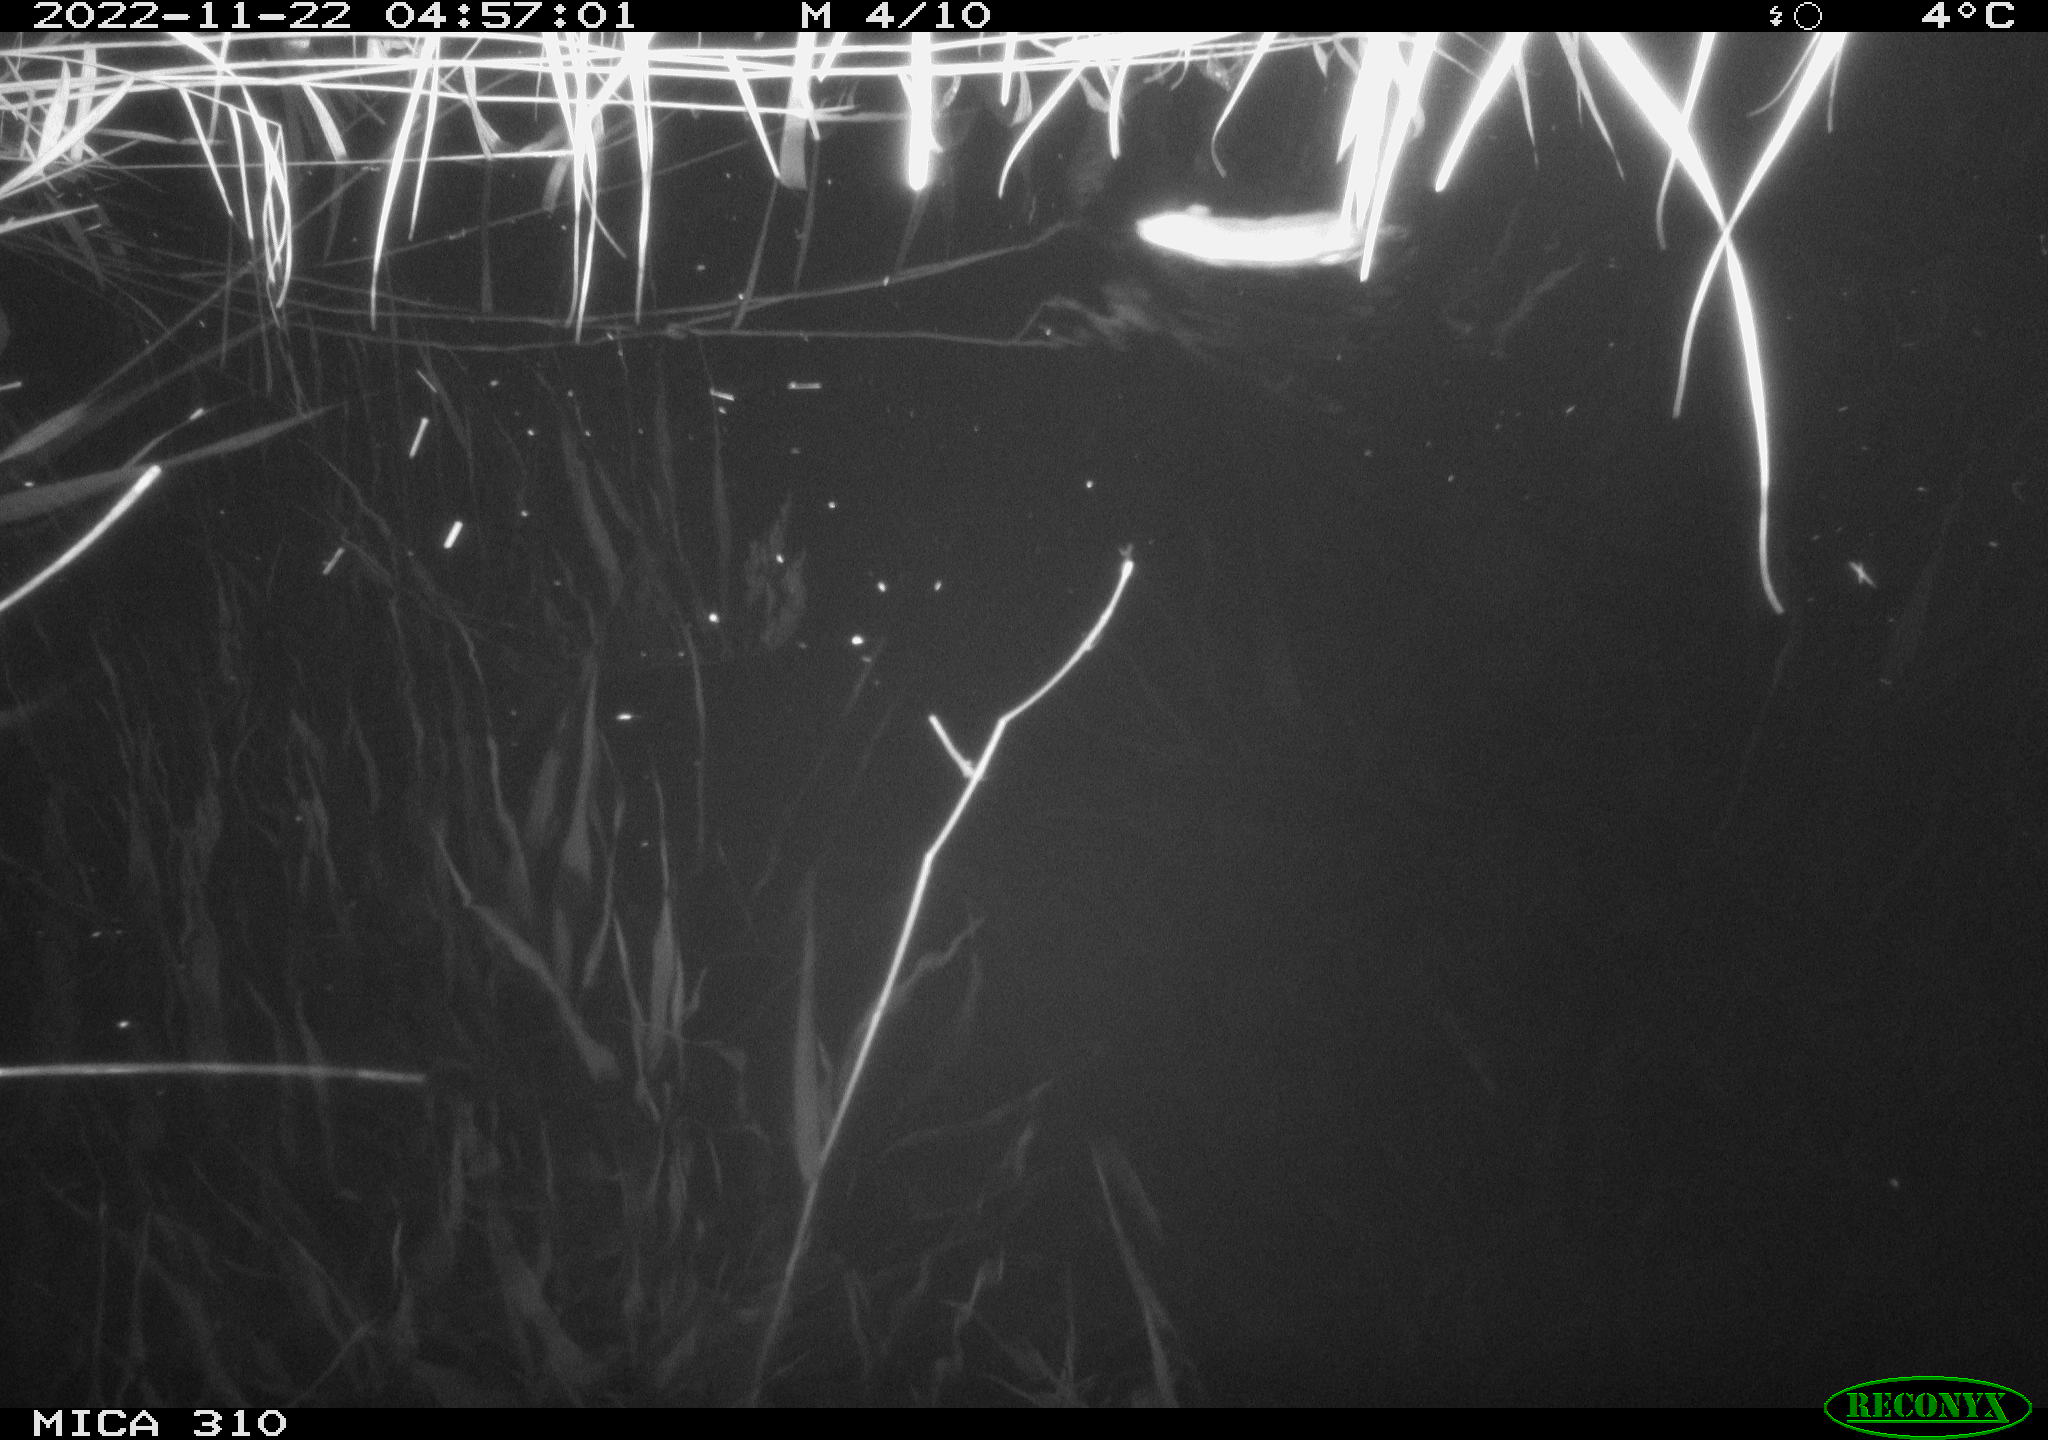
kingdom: Animalia
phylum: Chordata
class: Mammalia
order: Rodentia
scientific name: Rodentia
